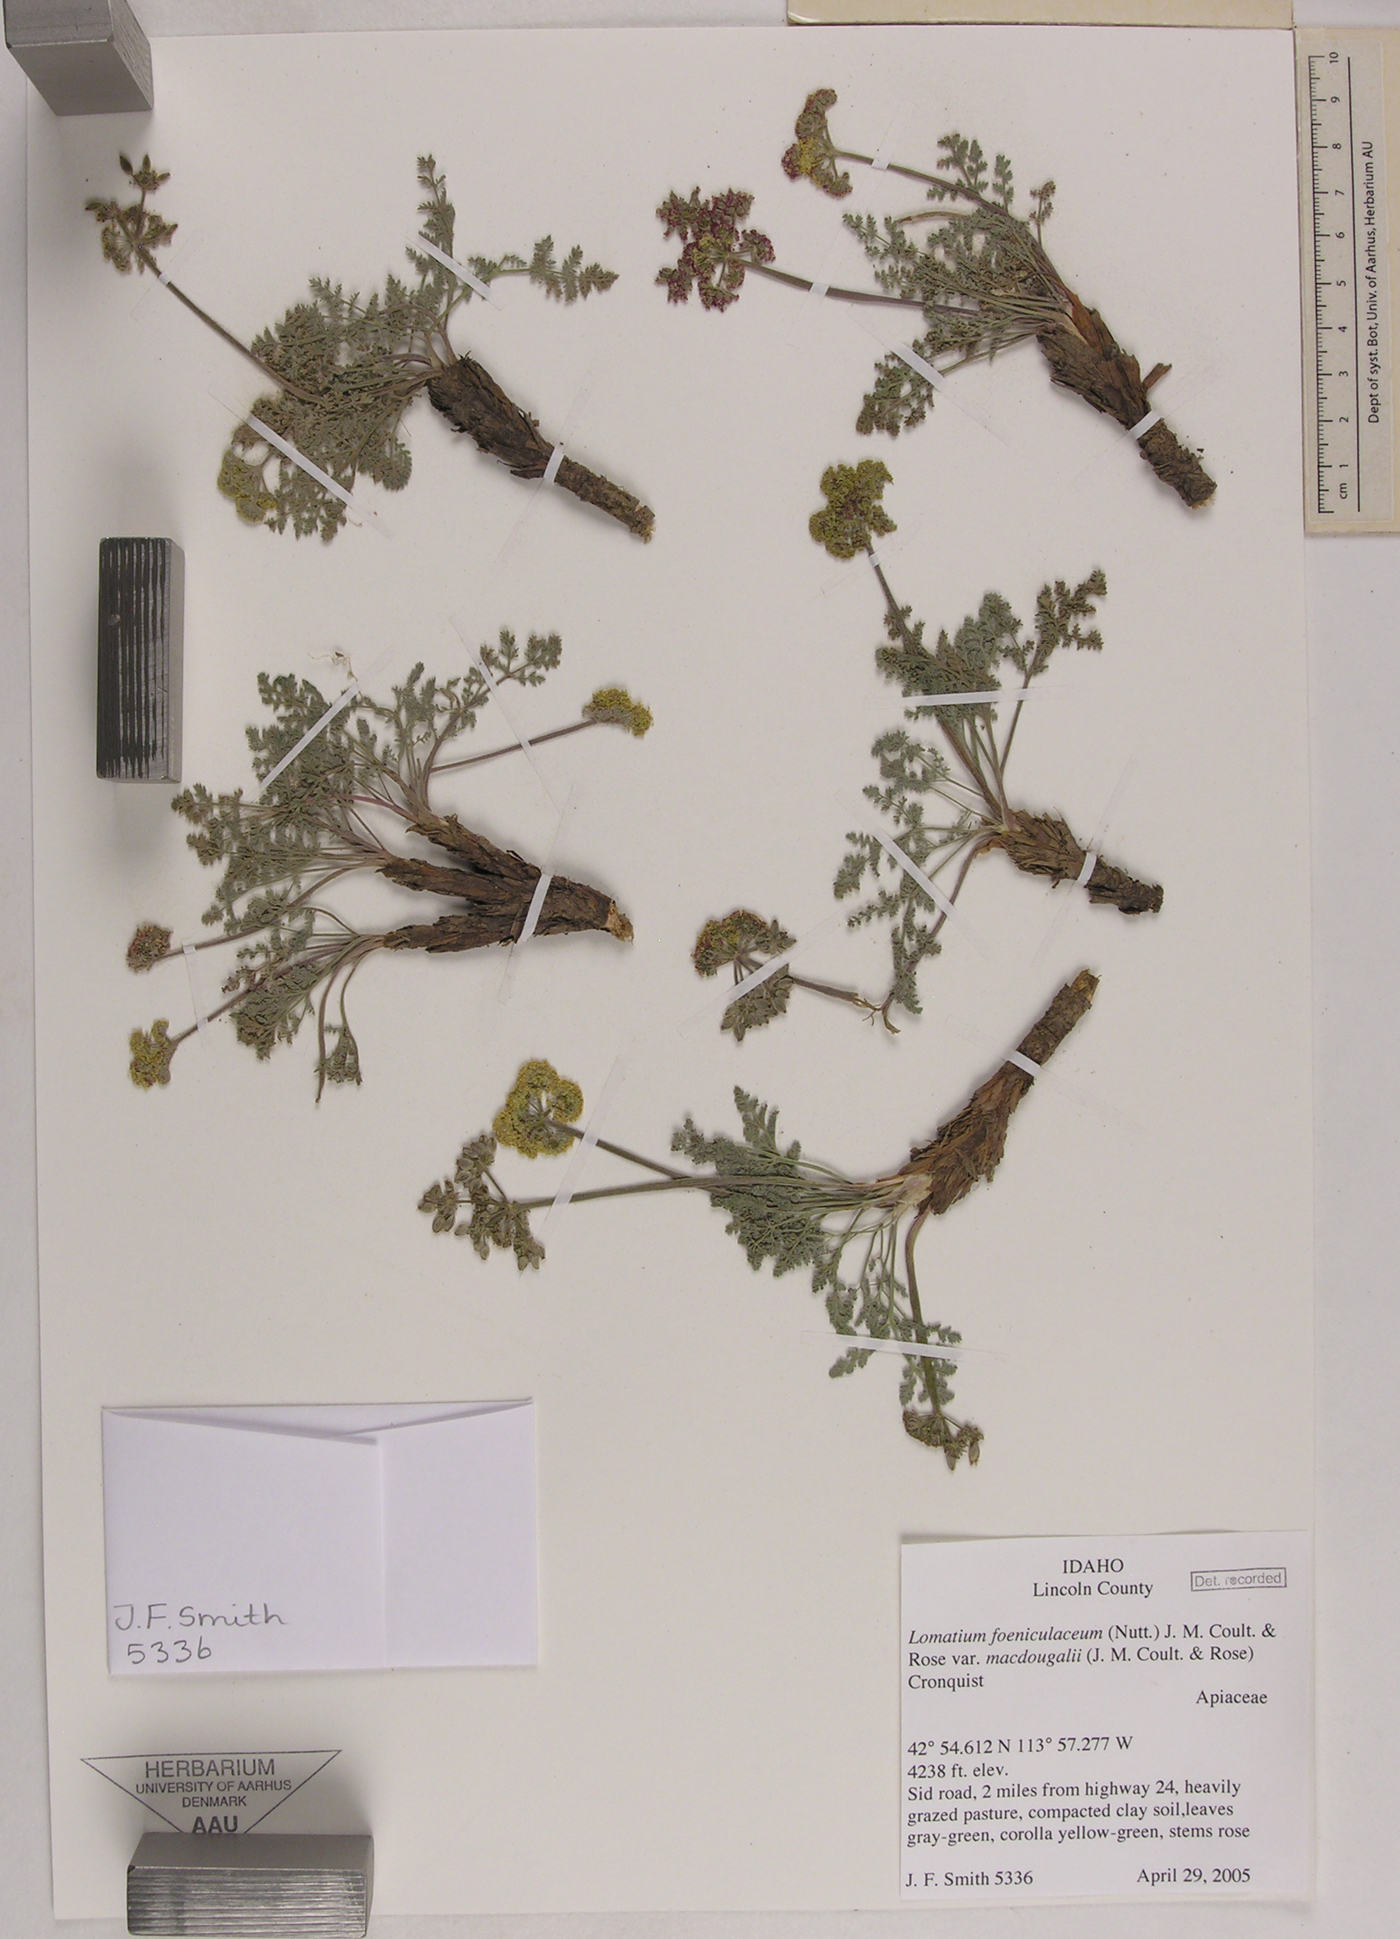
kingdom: Plantae
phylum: Tracheophyta
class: Magnoliopsida
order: Apiales
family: Apiaceae
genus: Lomatium
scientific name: Lomatium foeniculaceum
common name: Desert-parsley
